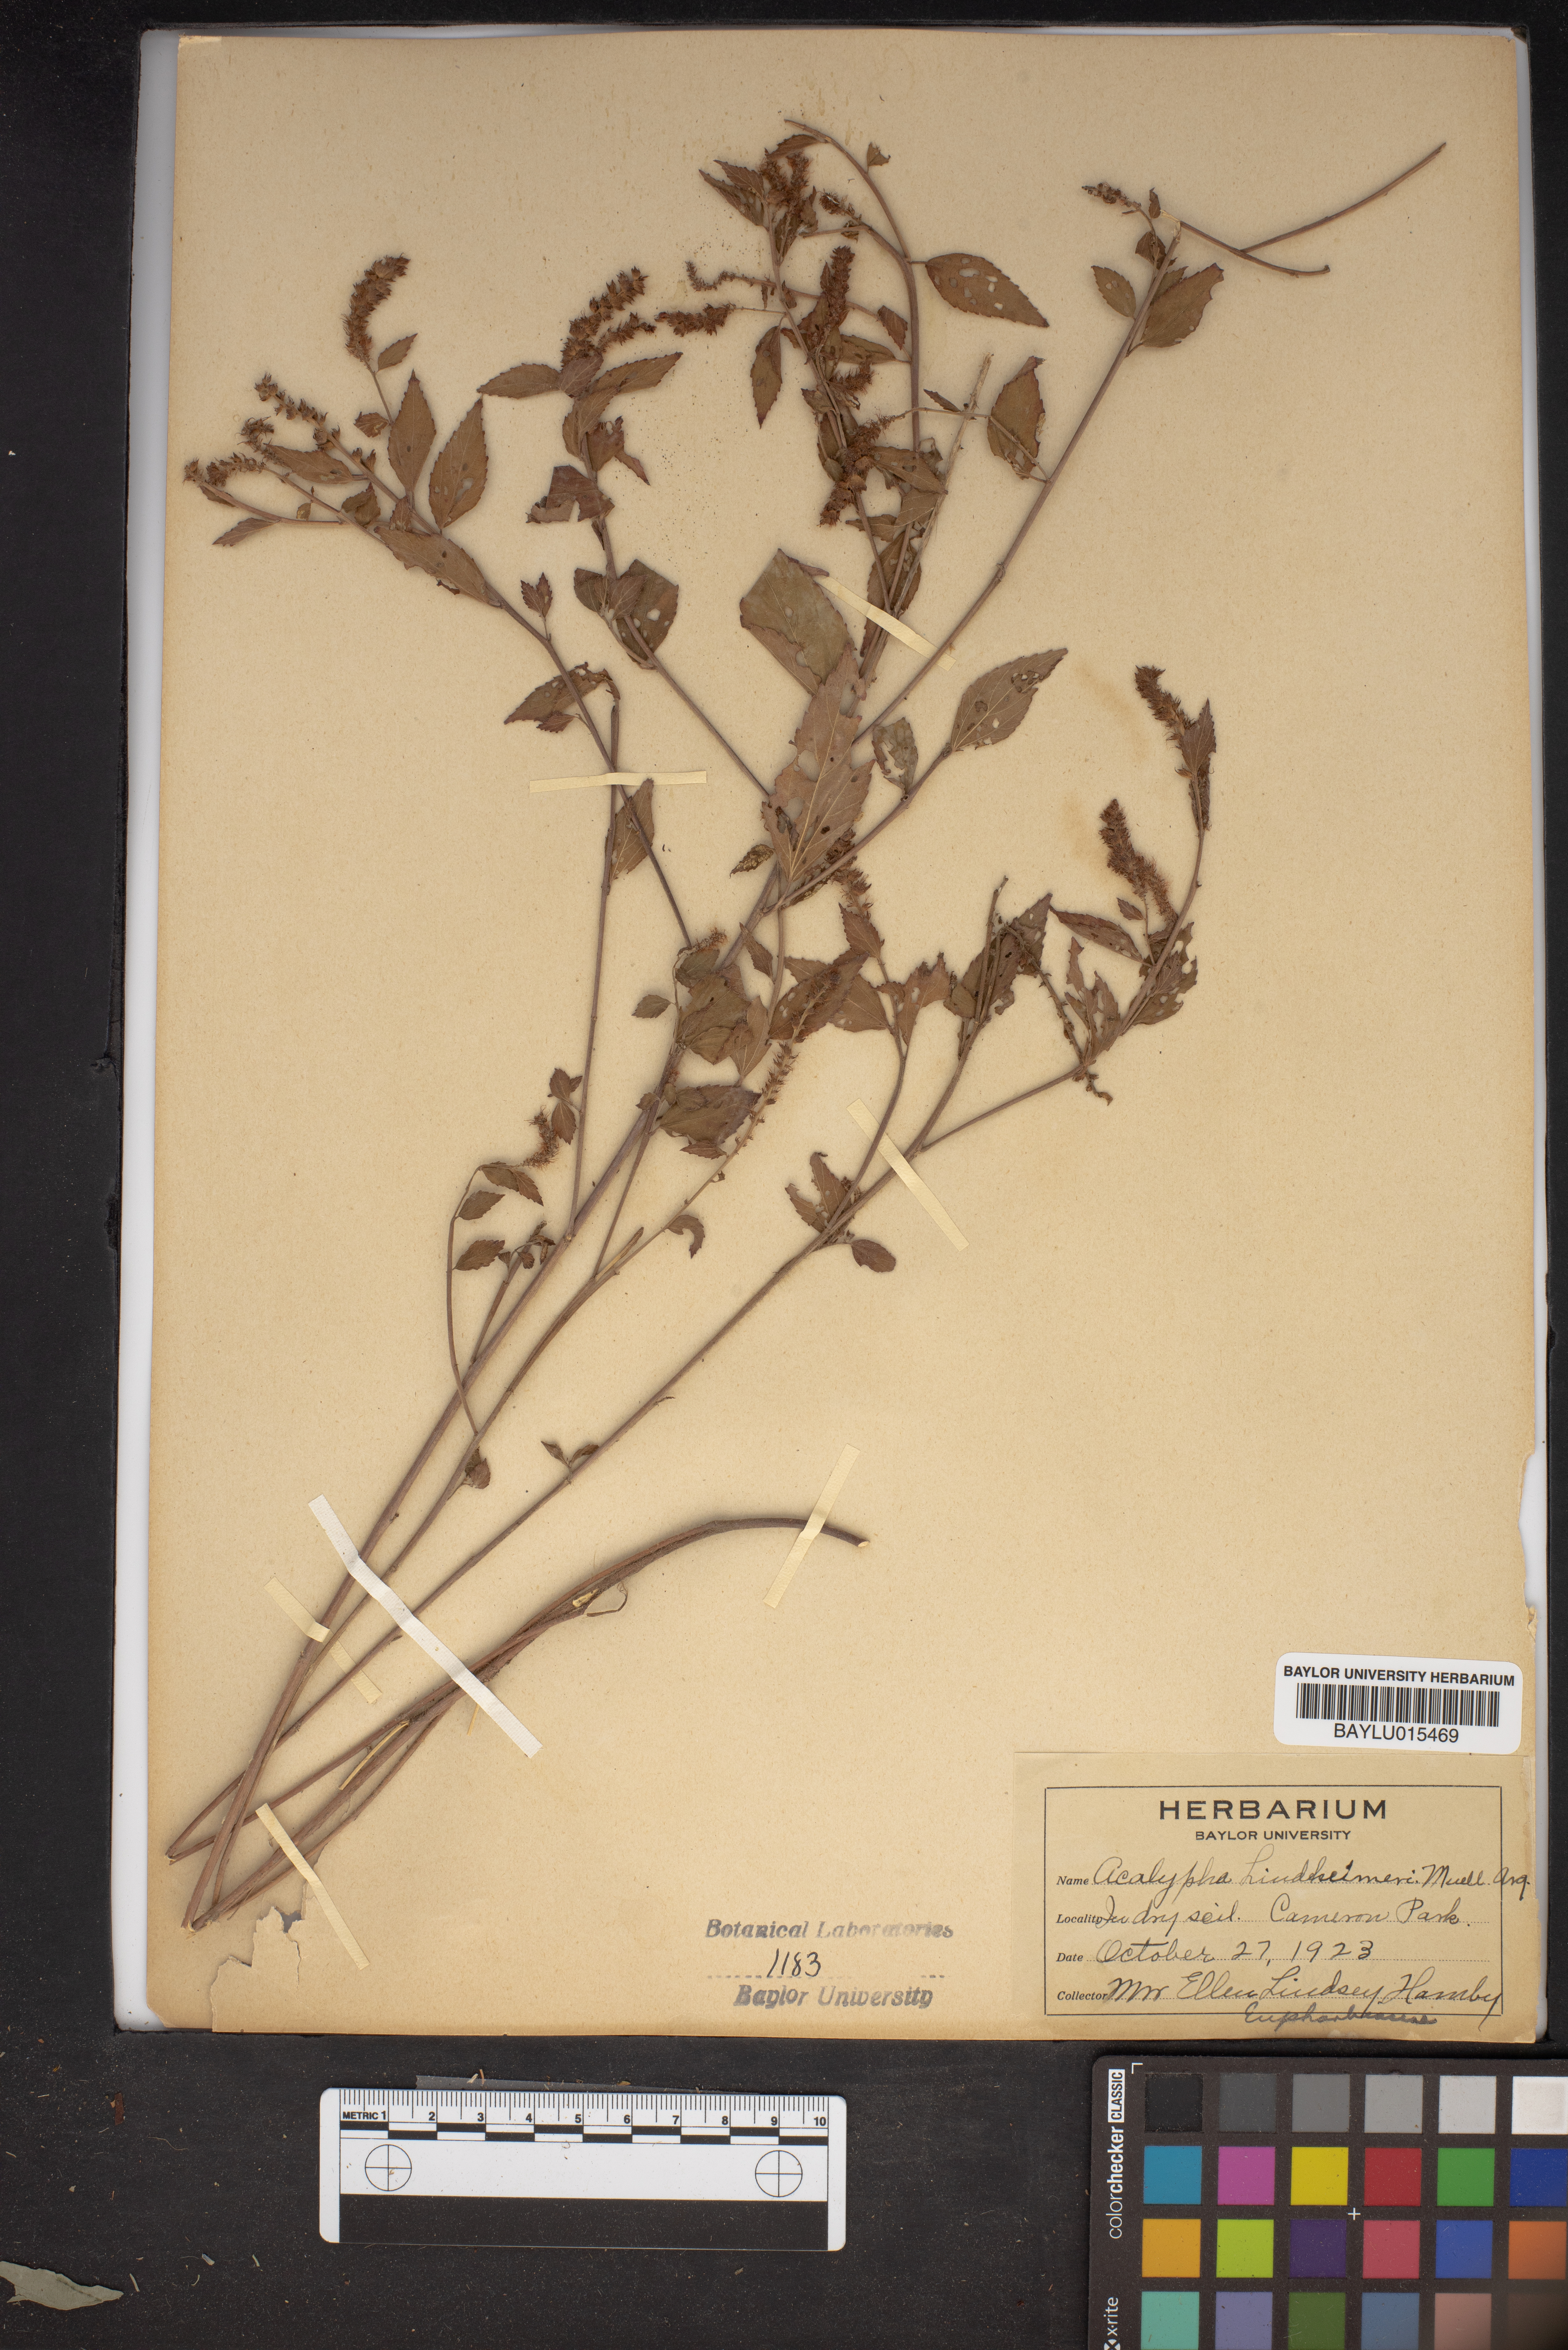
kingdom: Plantae
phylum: Tracheophyta
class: Magnoliopsida
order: Malpighiales
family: Euphorbiaceae
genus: Acalypha
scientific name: Acalypha phleoides
